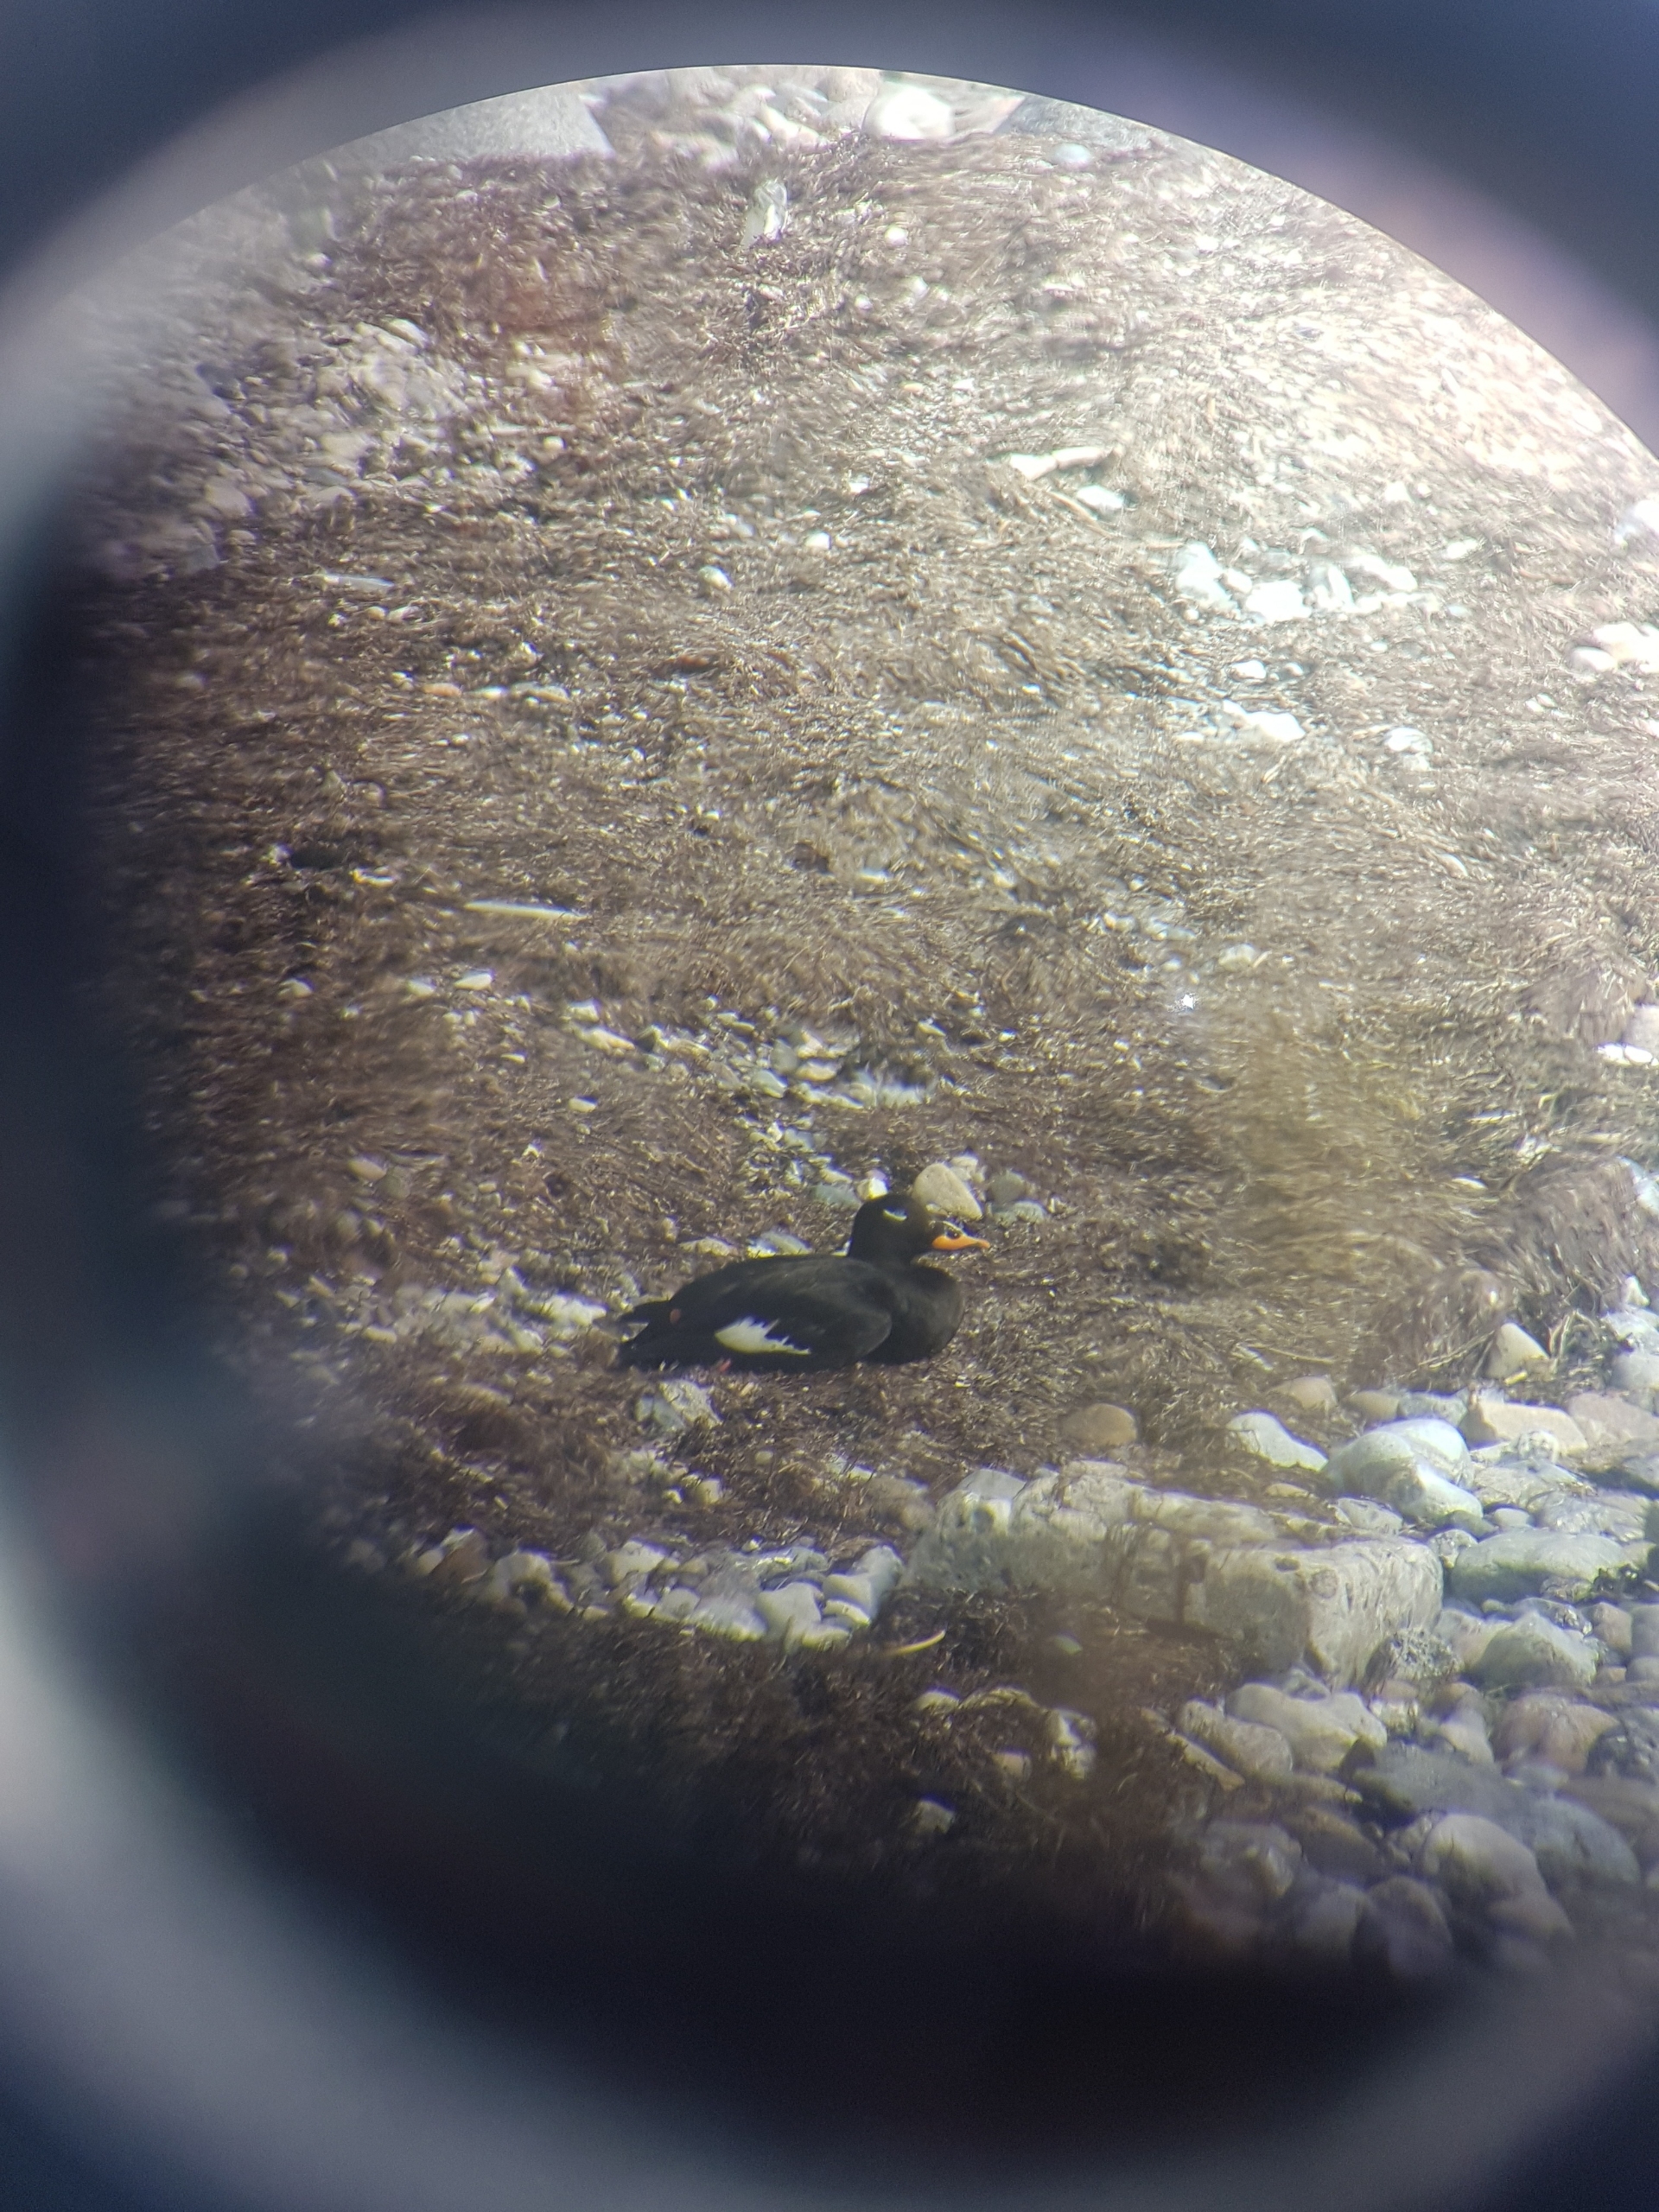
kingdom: Animalia
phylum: Chordata
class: Aves
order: Anseriformes
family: Anatidae
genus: Melanitta
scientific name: Melanitta fusca
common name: Fløjlsand
